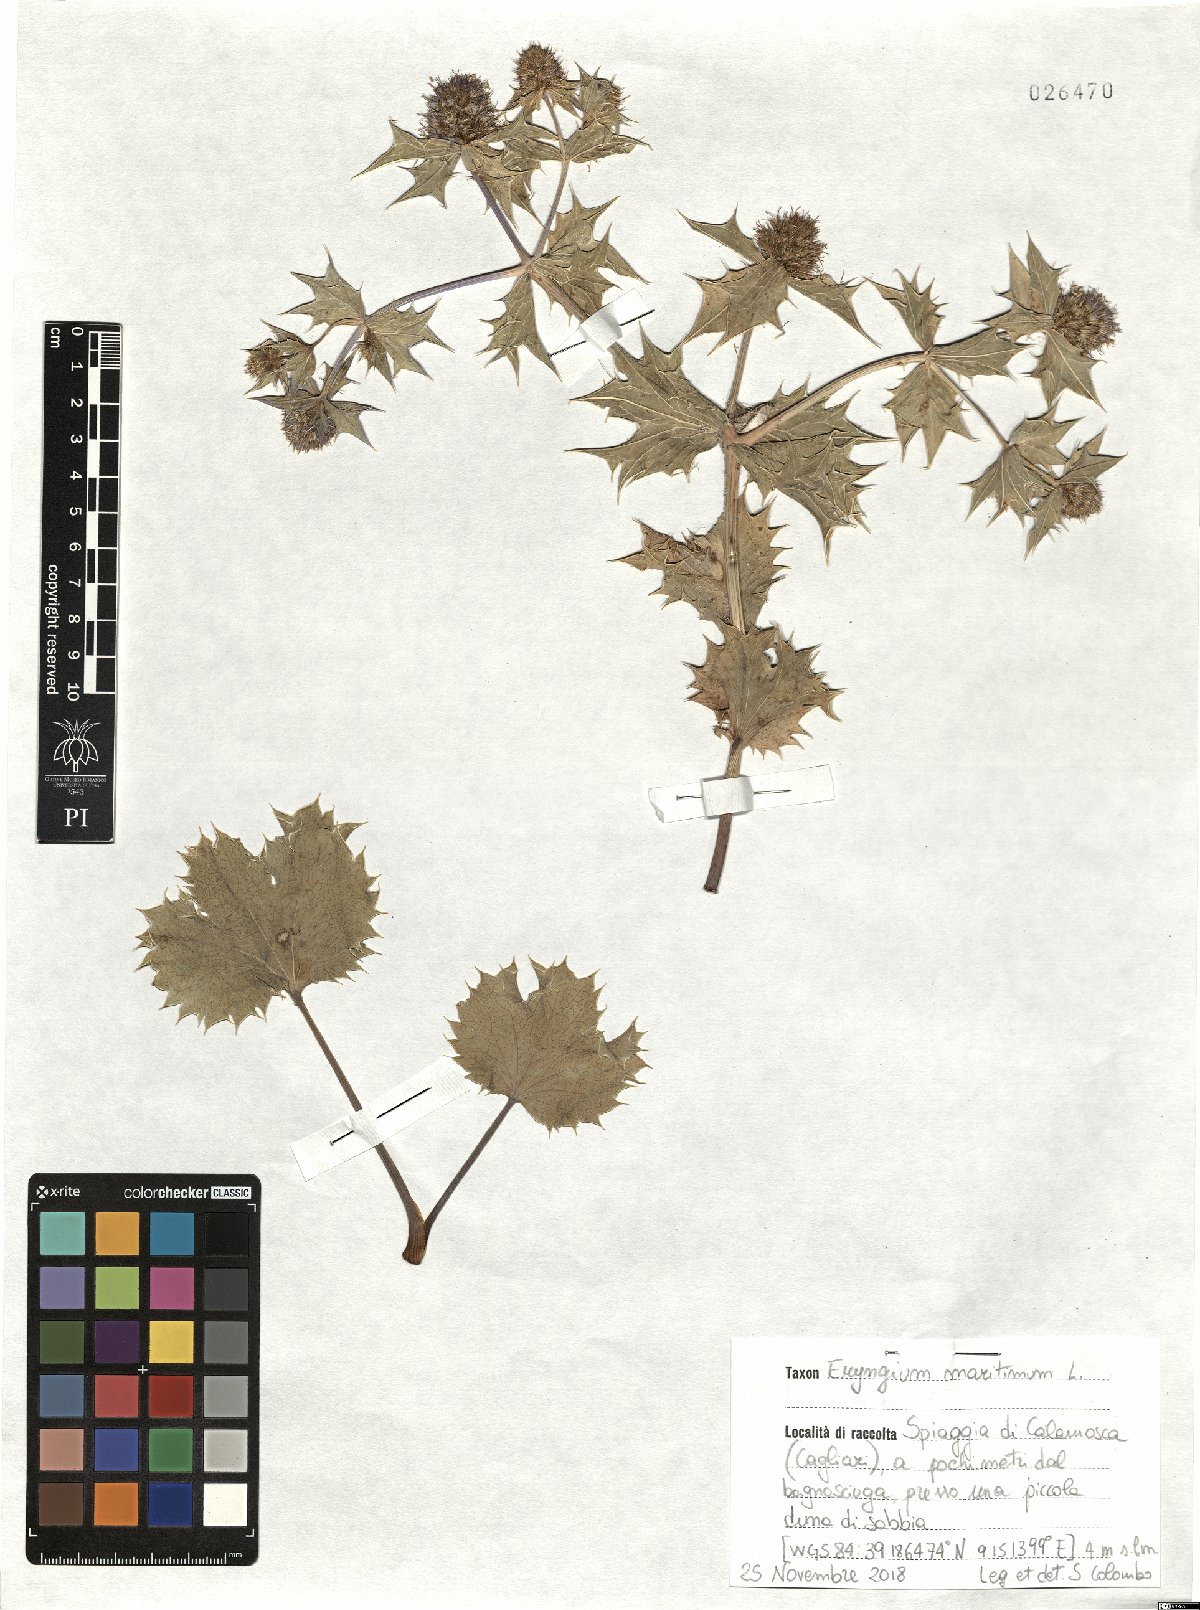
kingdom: Plantae
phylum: Tracheophyta
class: Magnoliopsida
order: Apiales
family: Apiaceae
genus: Eryngium
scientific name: Eryngium maritimum
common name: Sea-holly
